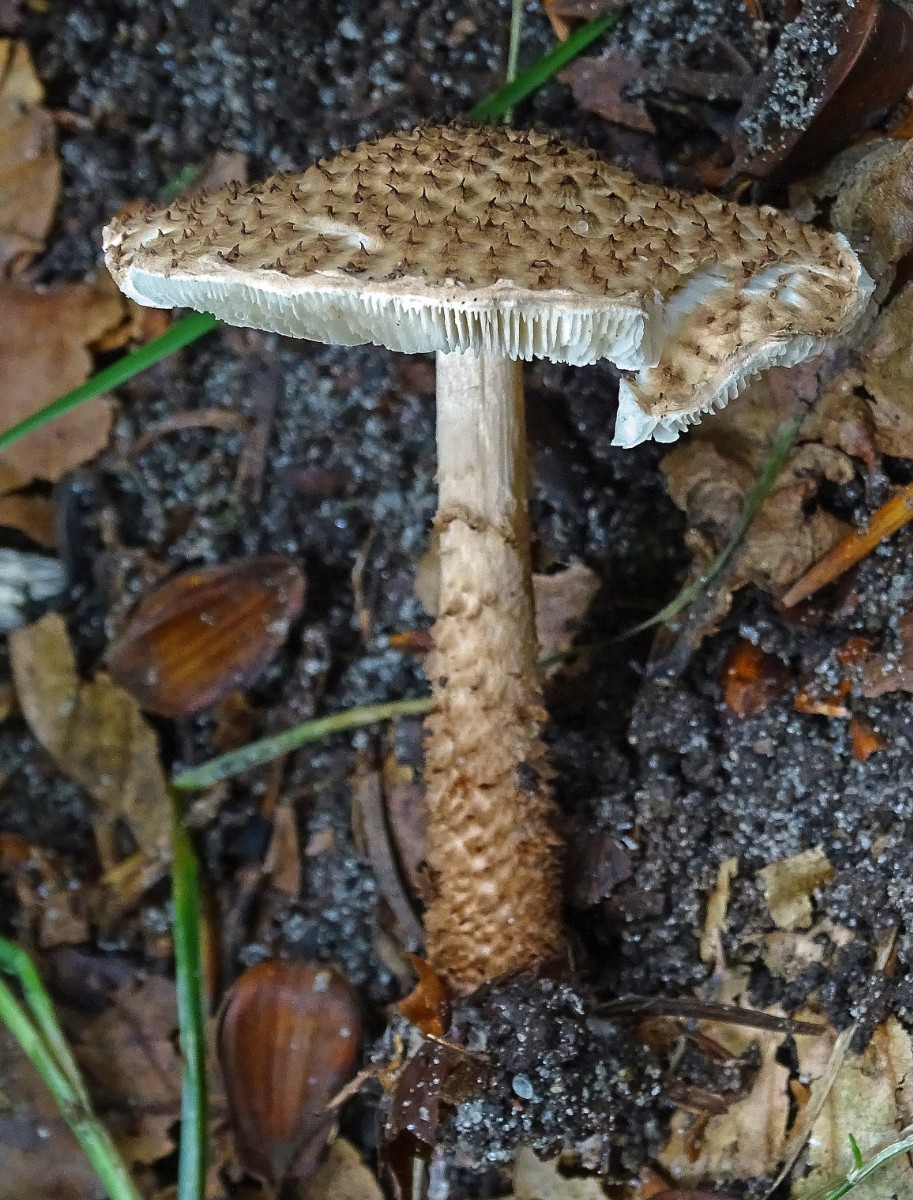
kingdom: Fungi
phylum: Basidiomycota
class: Agaricomycetes
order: Agaricales
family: Agaricaceae
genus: Echinoderma
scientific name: Echinoderma jacobi
